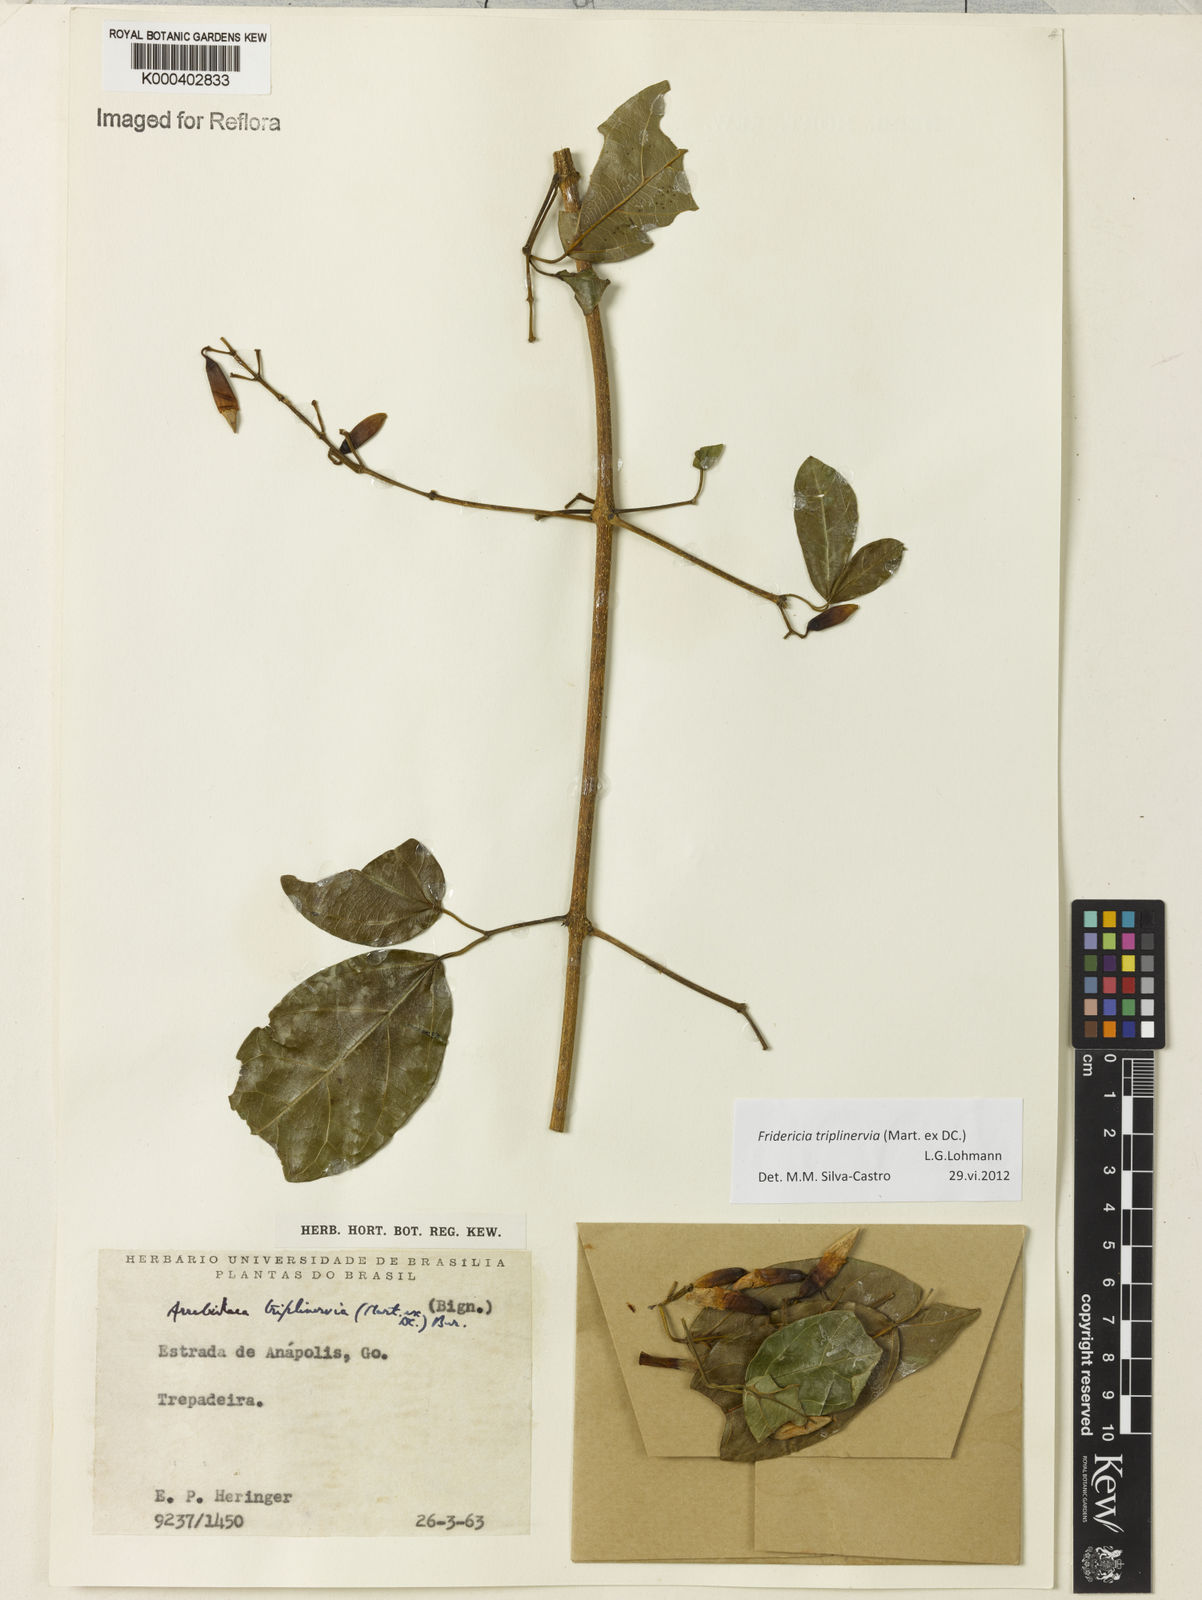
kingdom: Plantae
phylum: Tracheophyta
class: Magnoliopsida
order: Lamiales
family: Bignoniaceae
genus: Fridericia
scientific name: Fridericia triplinervia
